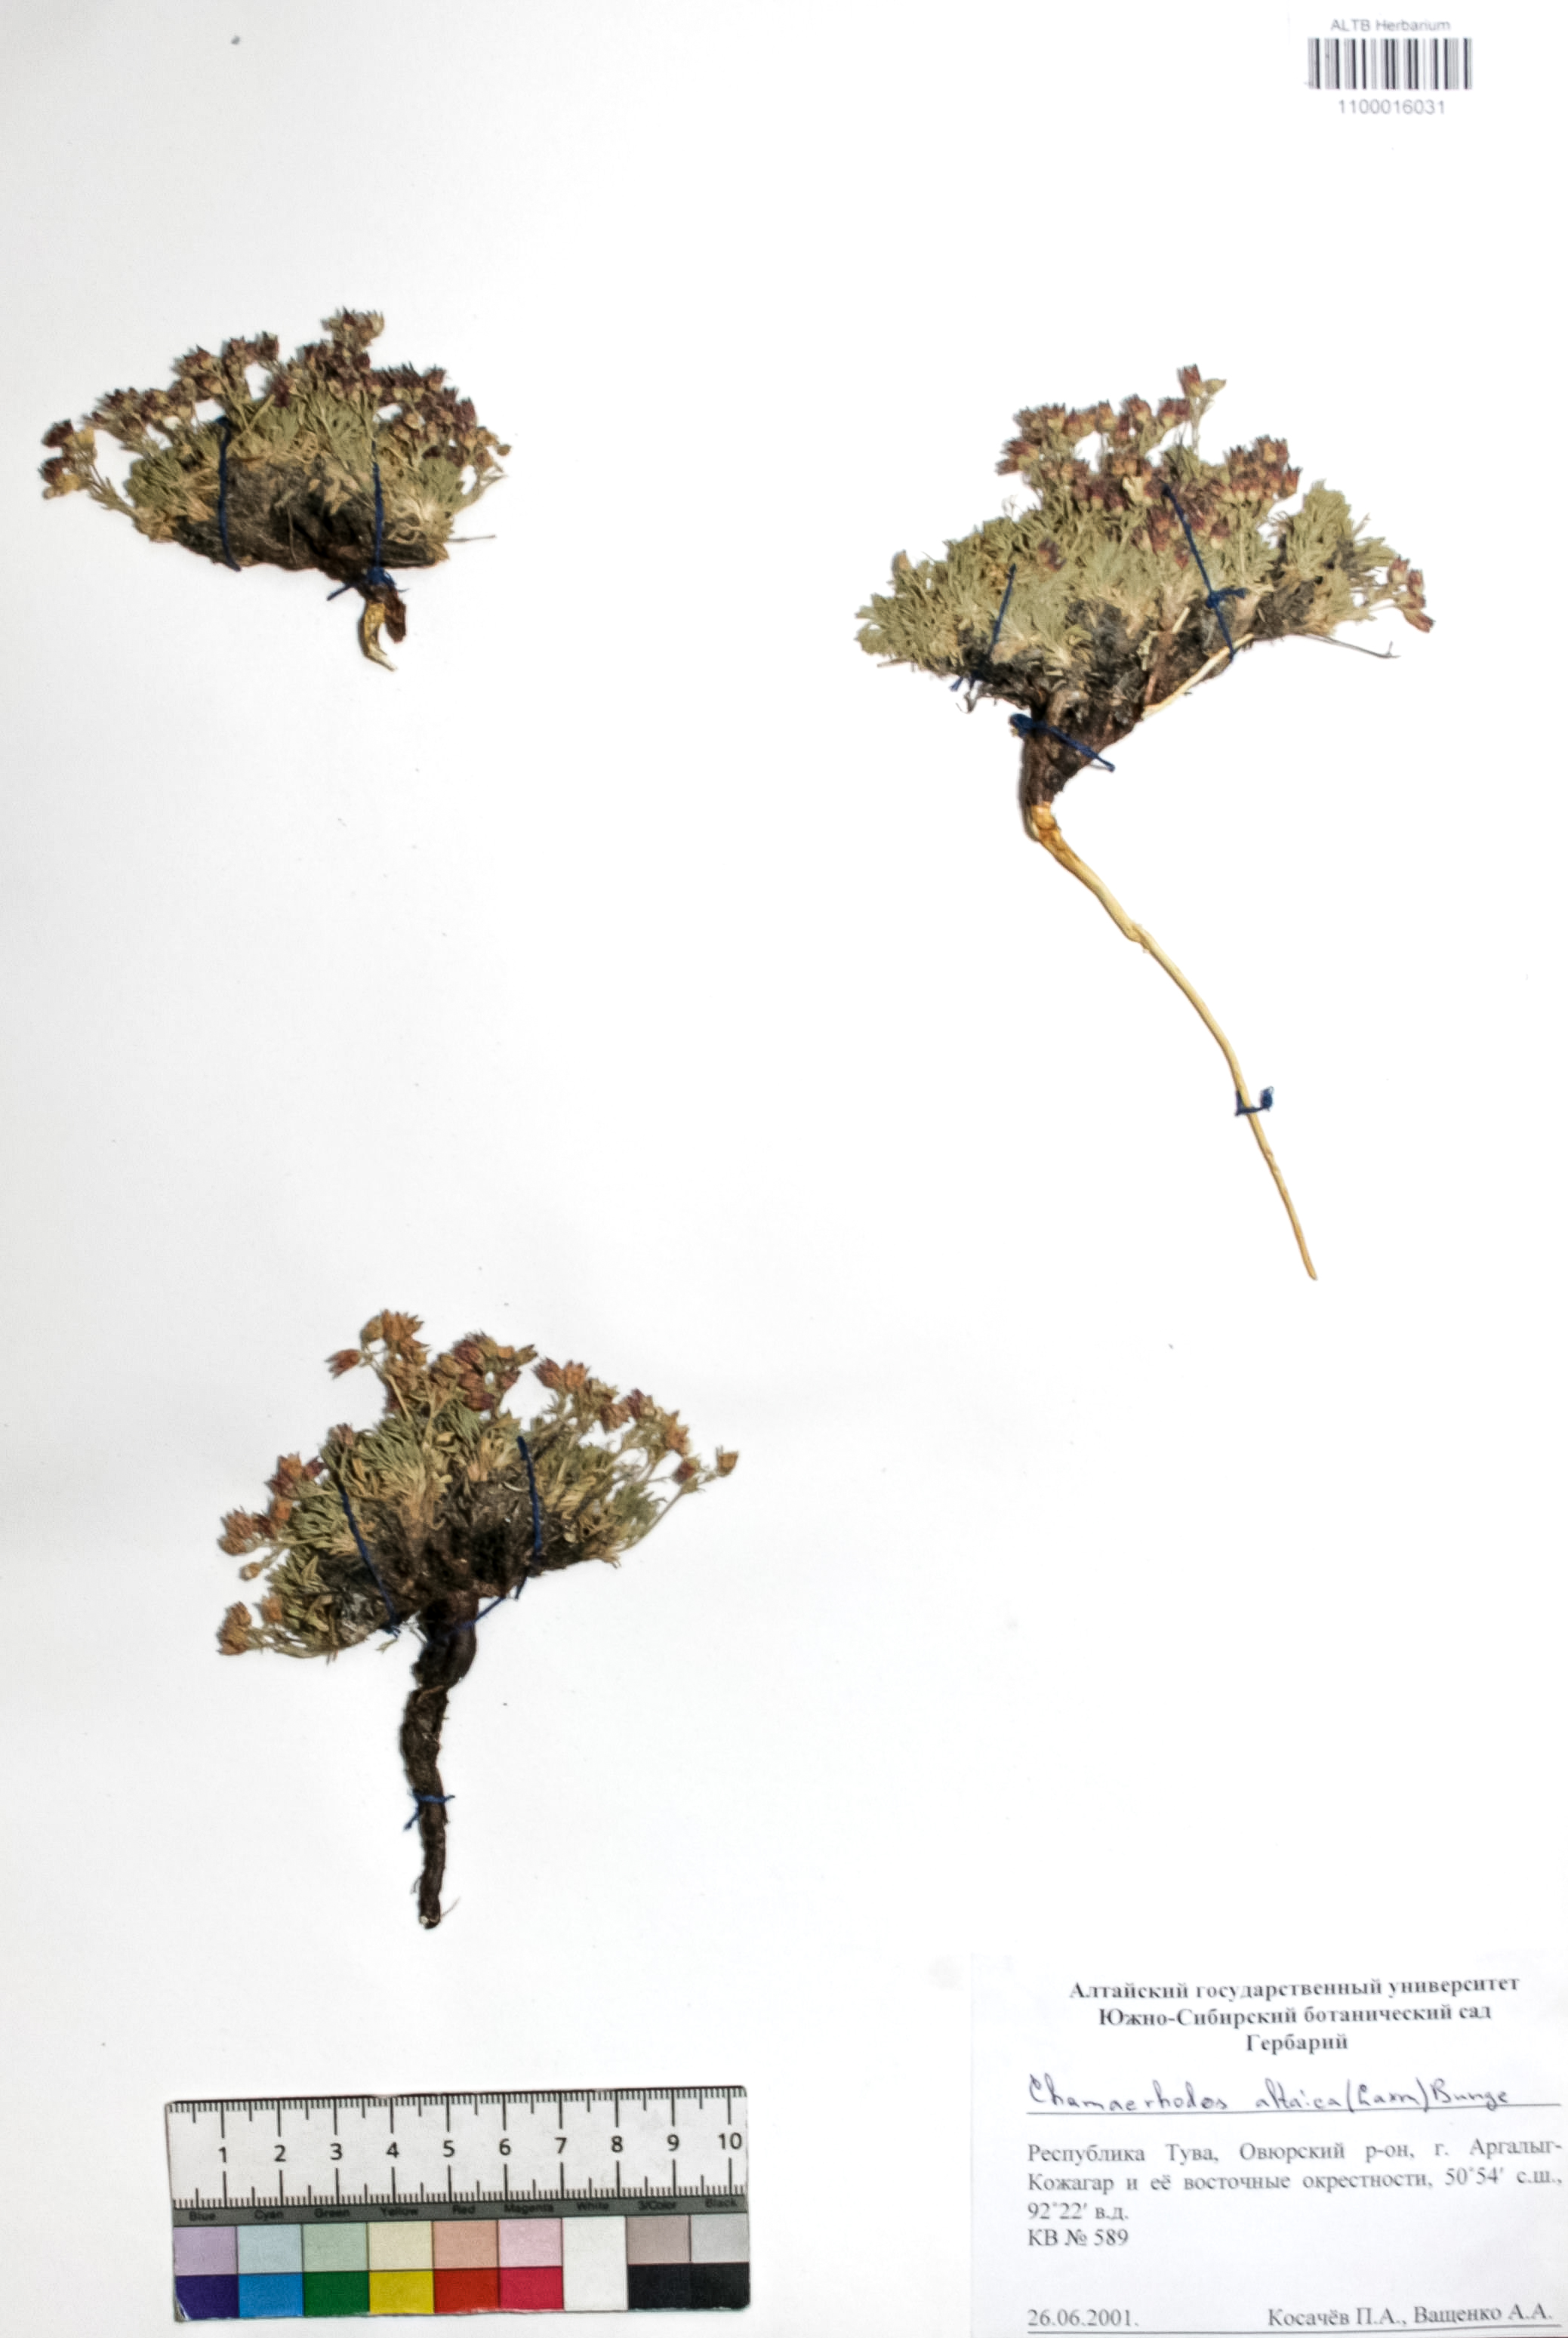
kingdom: Plantae
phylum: Tracheophyta
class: Magnoliopsida
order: Rosales
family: Rosaceae
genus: Chamaerhodos
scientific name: Chamaerhodos altaica
